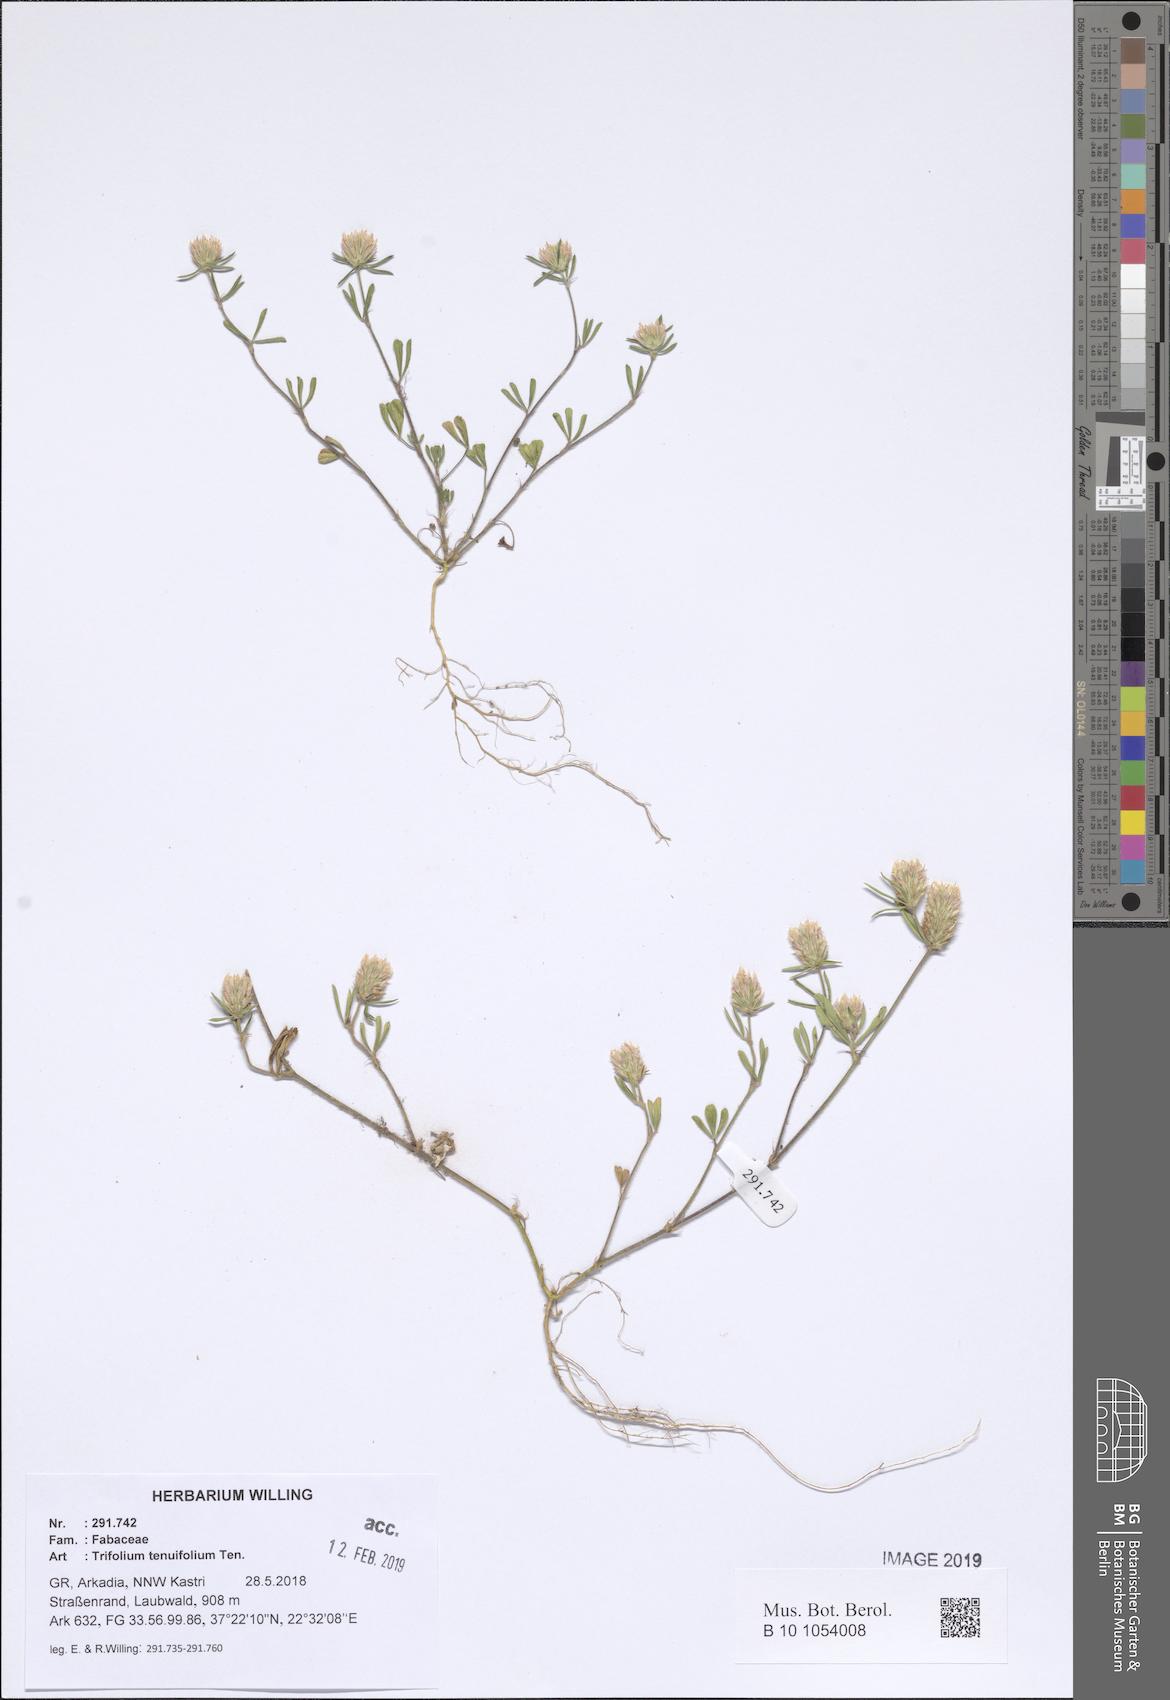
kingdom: Plantae
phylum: Tracheophyta
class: Magnoliopsida
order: Fabales
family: Fabaceae
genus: Trifolium
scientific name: Trifolium tenuifolium
